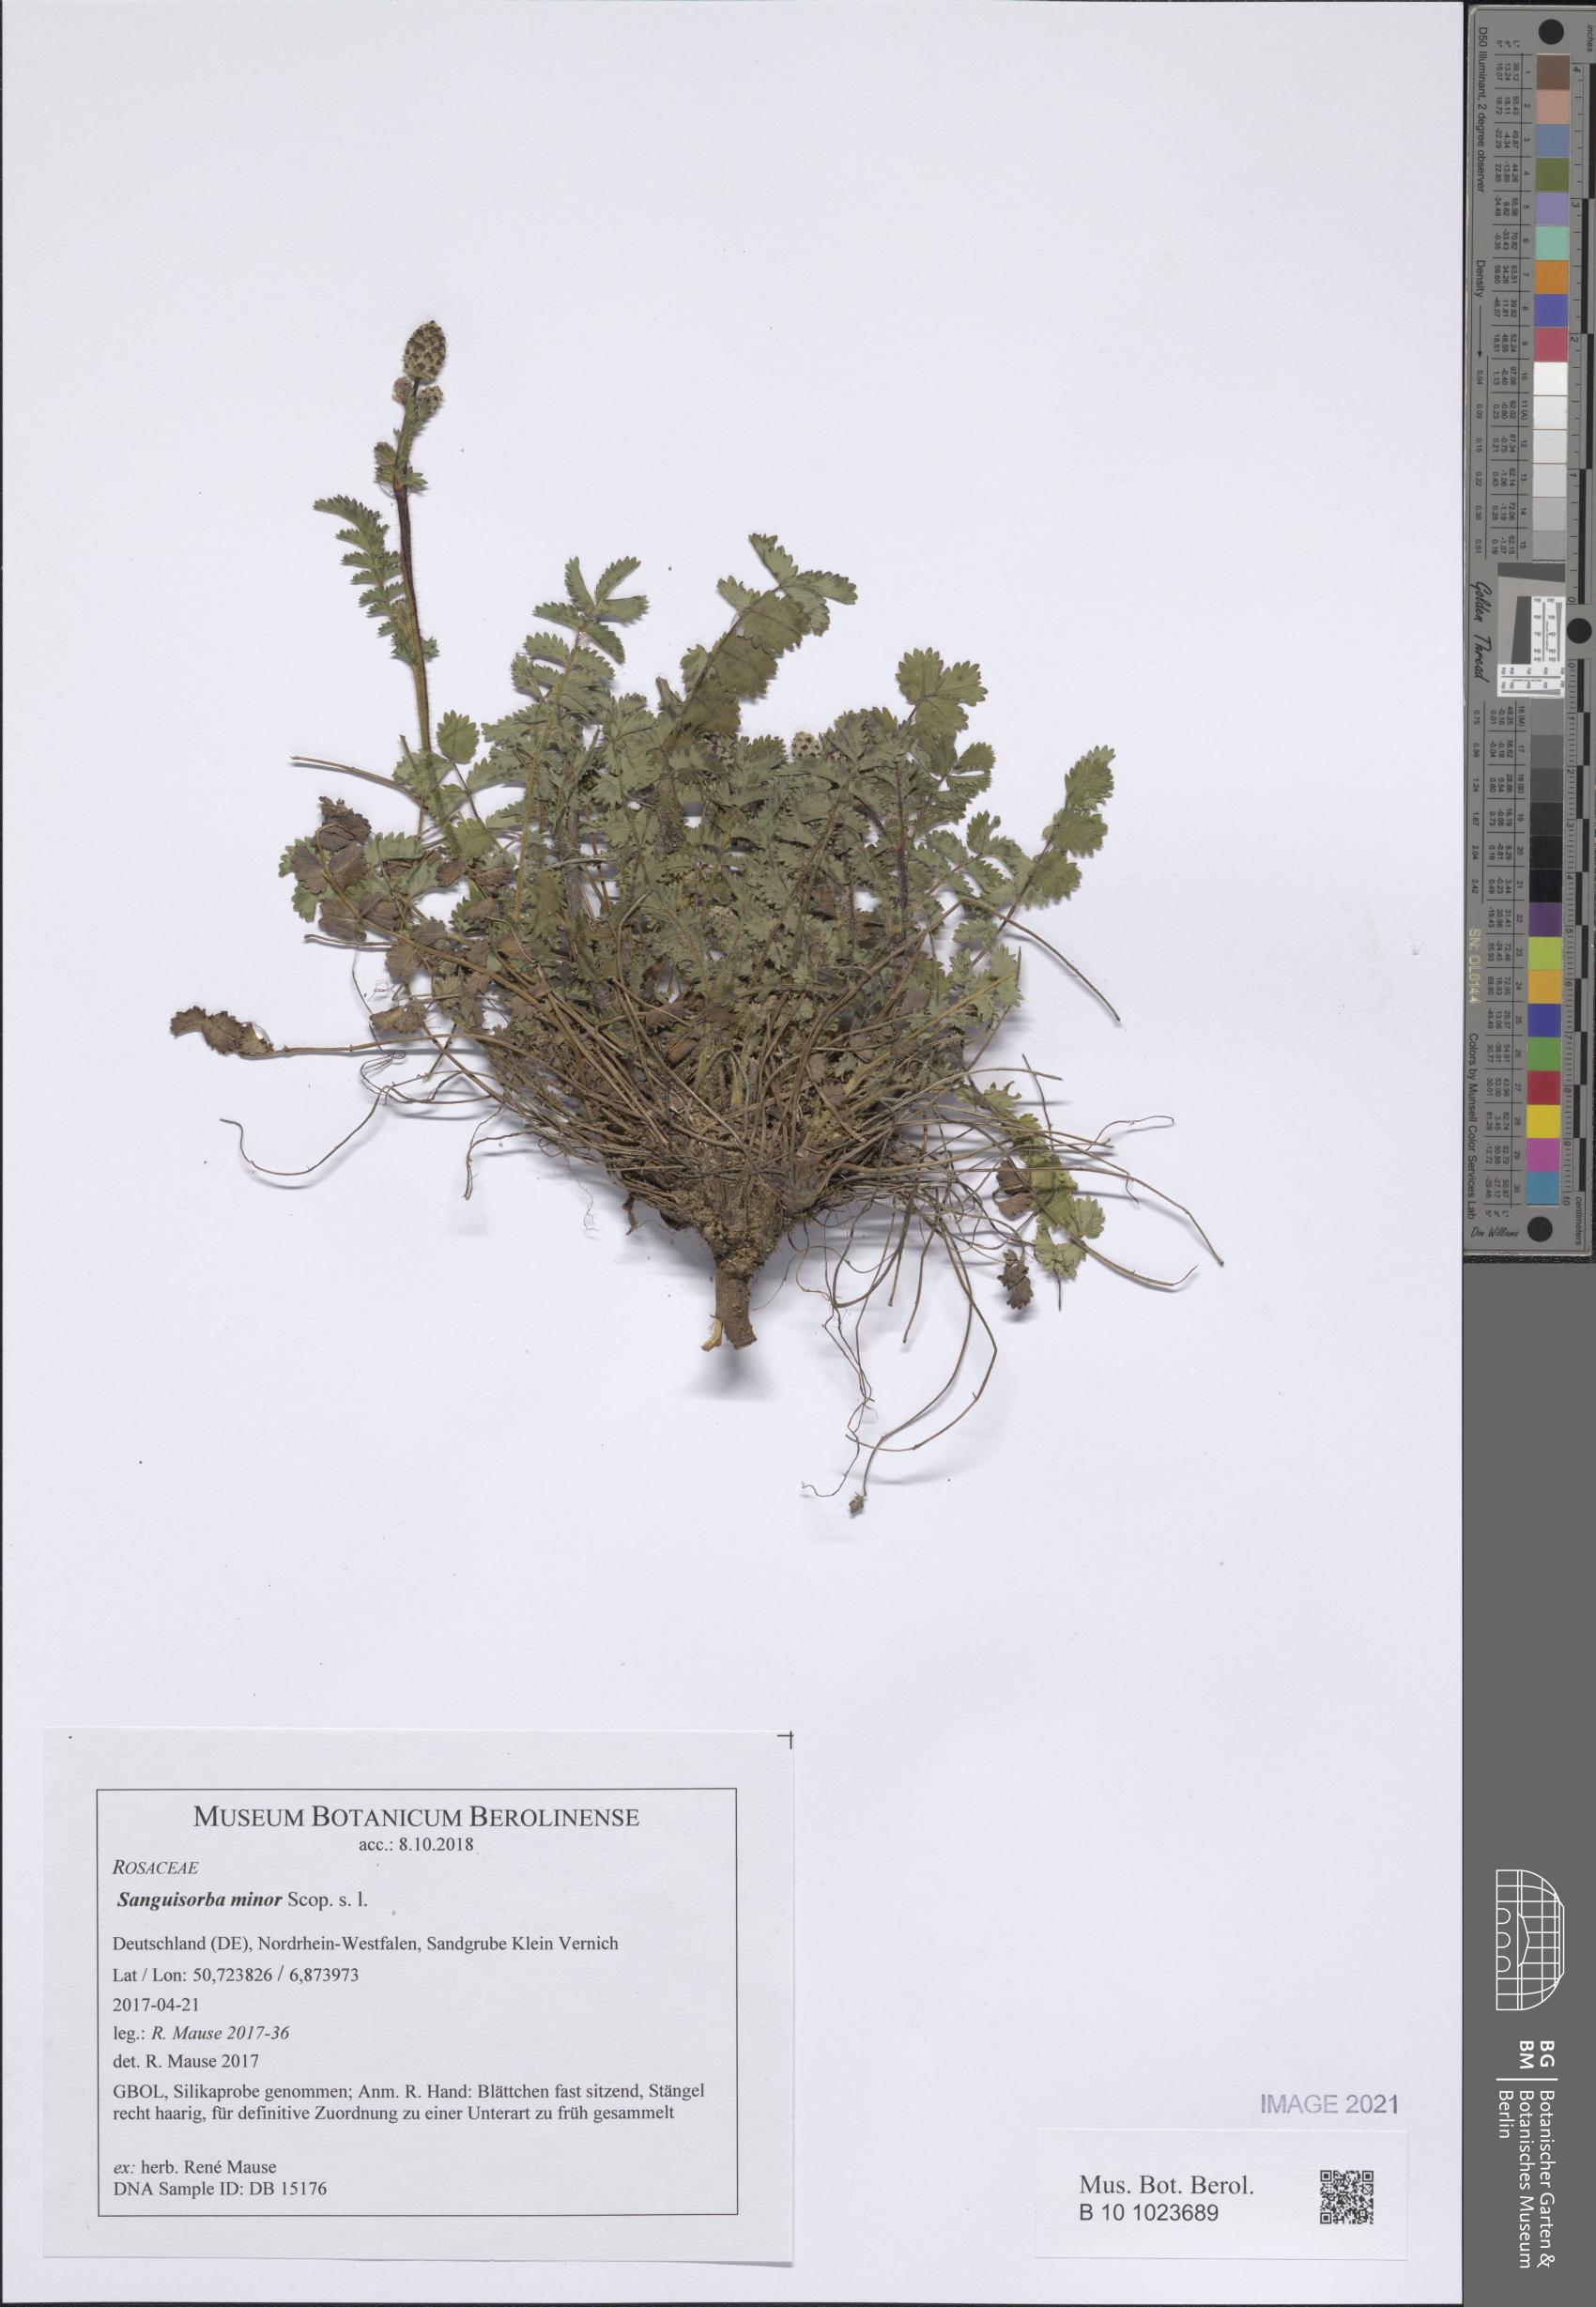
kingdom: Plantae
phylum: Tracheophyta
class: Magnoliopsida
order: Rosales
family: Rosaceae
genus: Poterium
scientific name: Poterium sanguisorba
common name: Salad burnet
